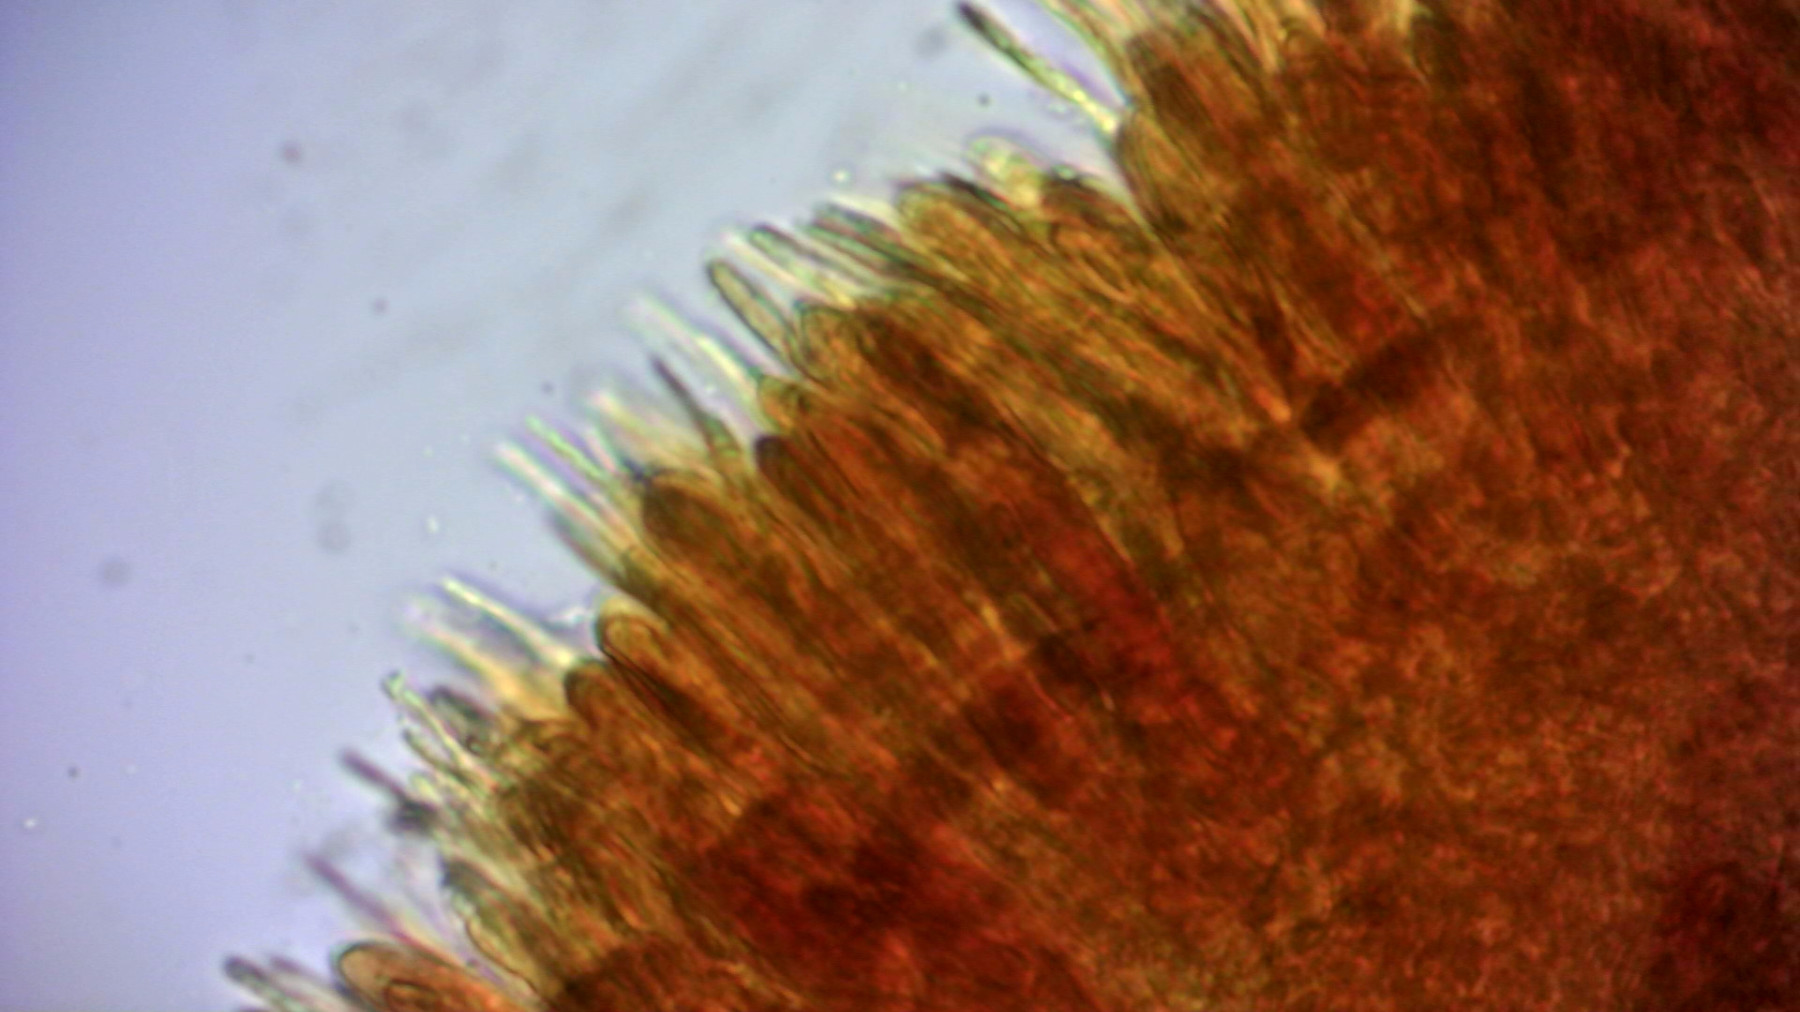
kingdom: Fungi
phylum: Ascomycota
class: Leotiomycetes
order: Helotiales
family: Solenopeziaceae
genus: Lasiobelonium
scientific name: Lasiobelonium variegatum
